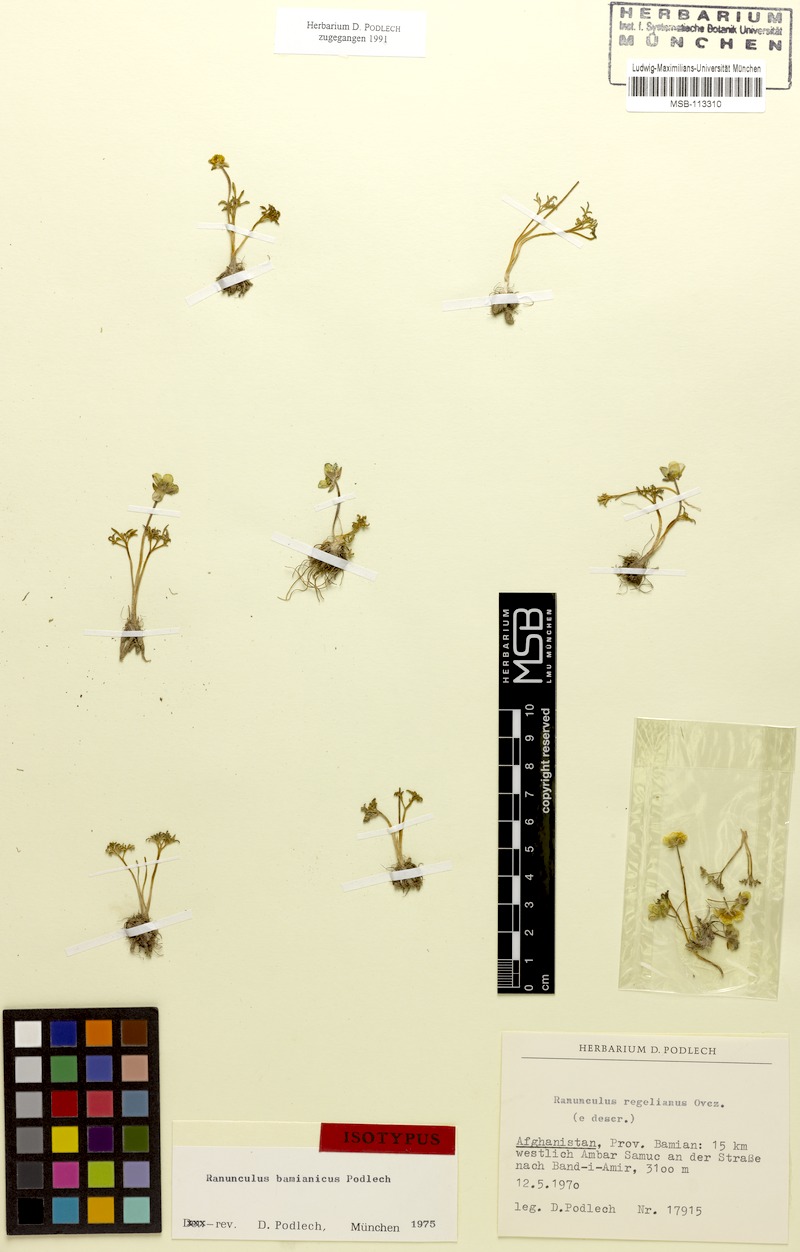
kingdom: Plantae
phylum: Tracheophyta
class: Magnoliopsida
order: Ranunculales
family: Ranunculaceae
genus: Ranunculus
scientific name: Ranunculus bamianicus
